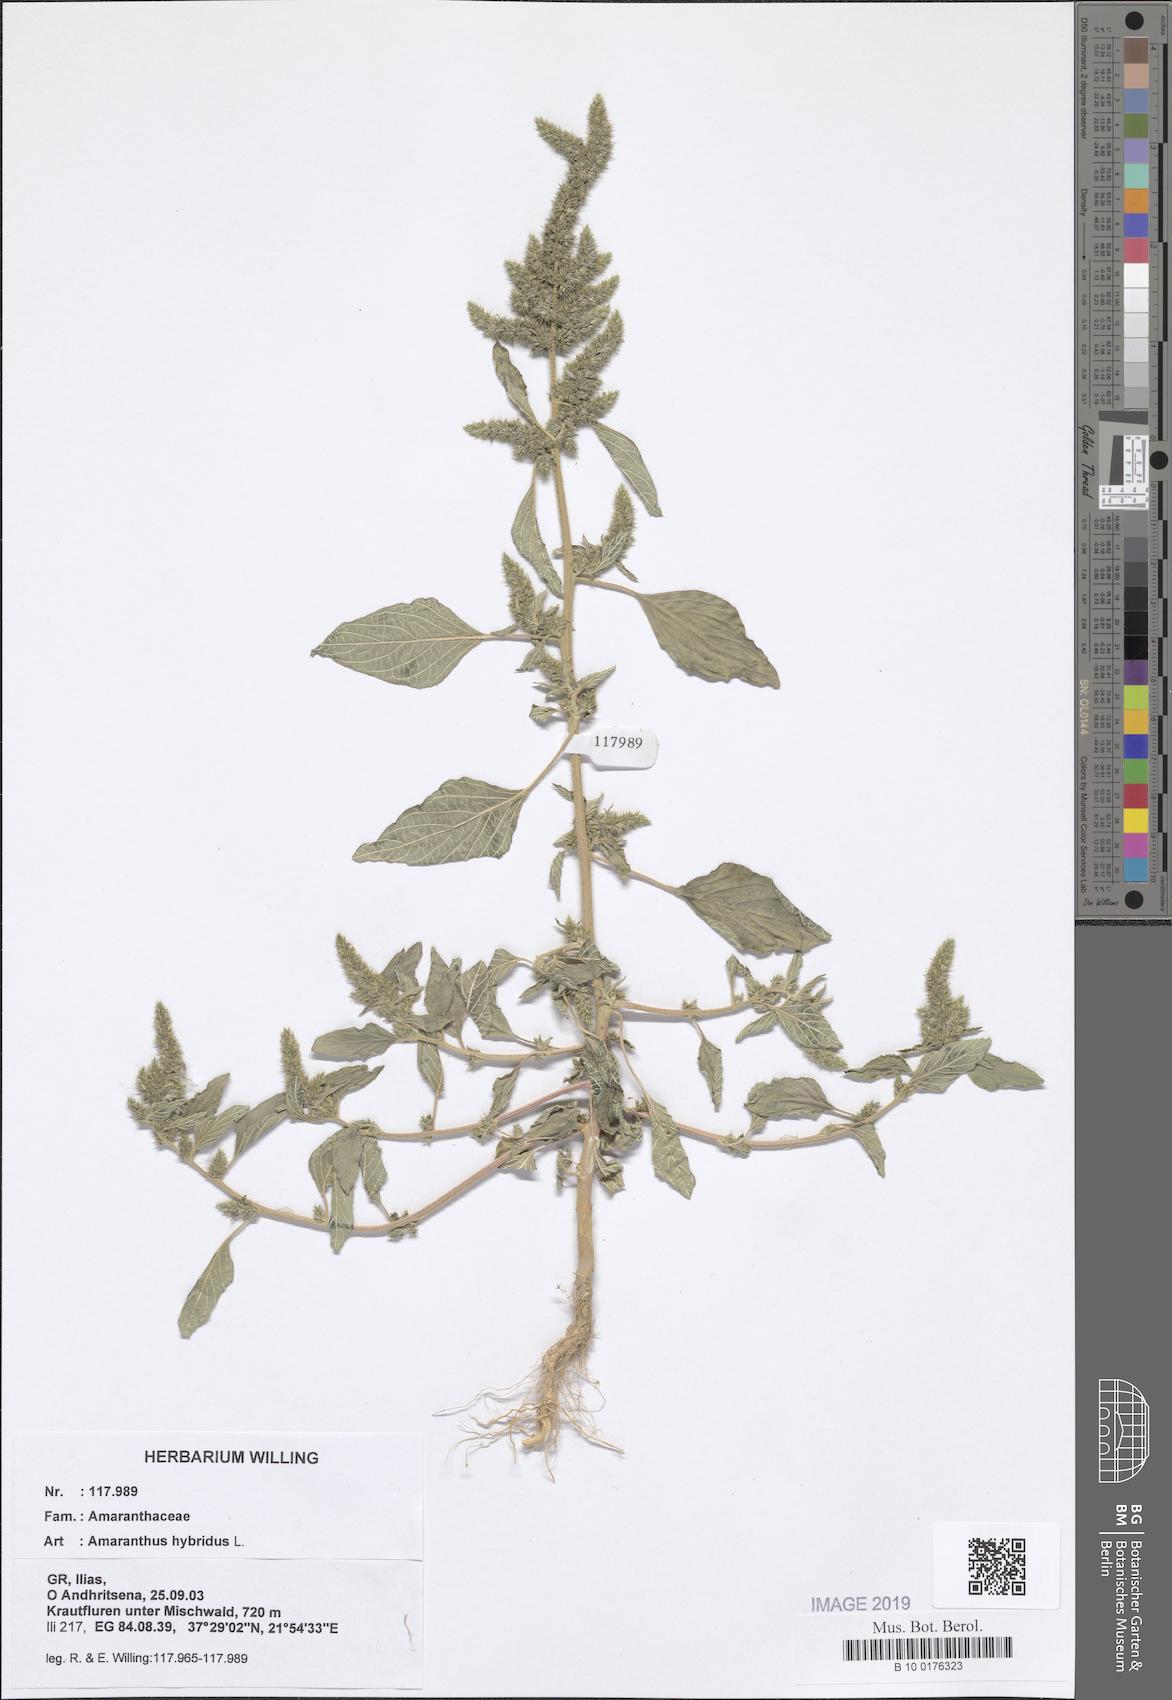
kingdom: Plantae
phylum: Tracheophyta
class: Magnoliopsida
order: Caryophyllales
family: Amaranthaceae
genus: Amaranthus
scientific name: Amaranthus hybridus
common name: Green amaranth
